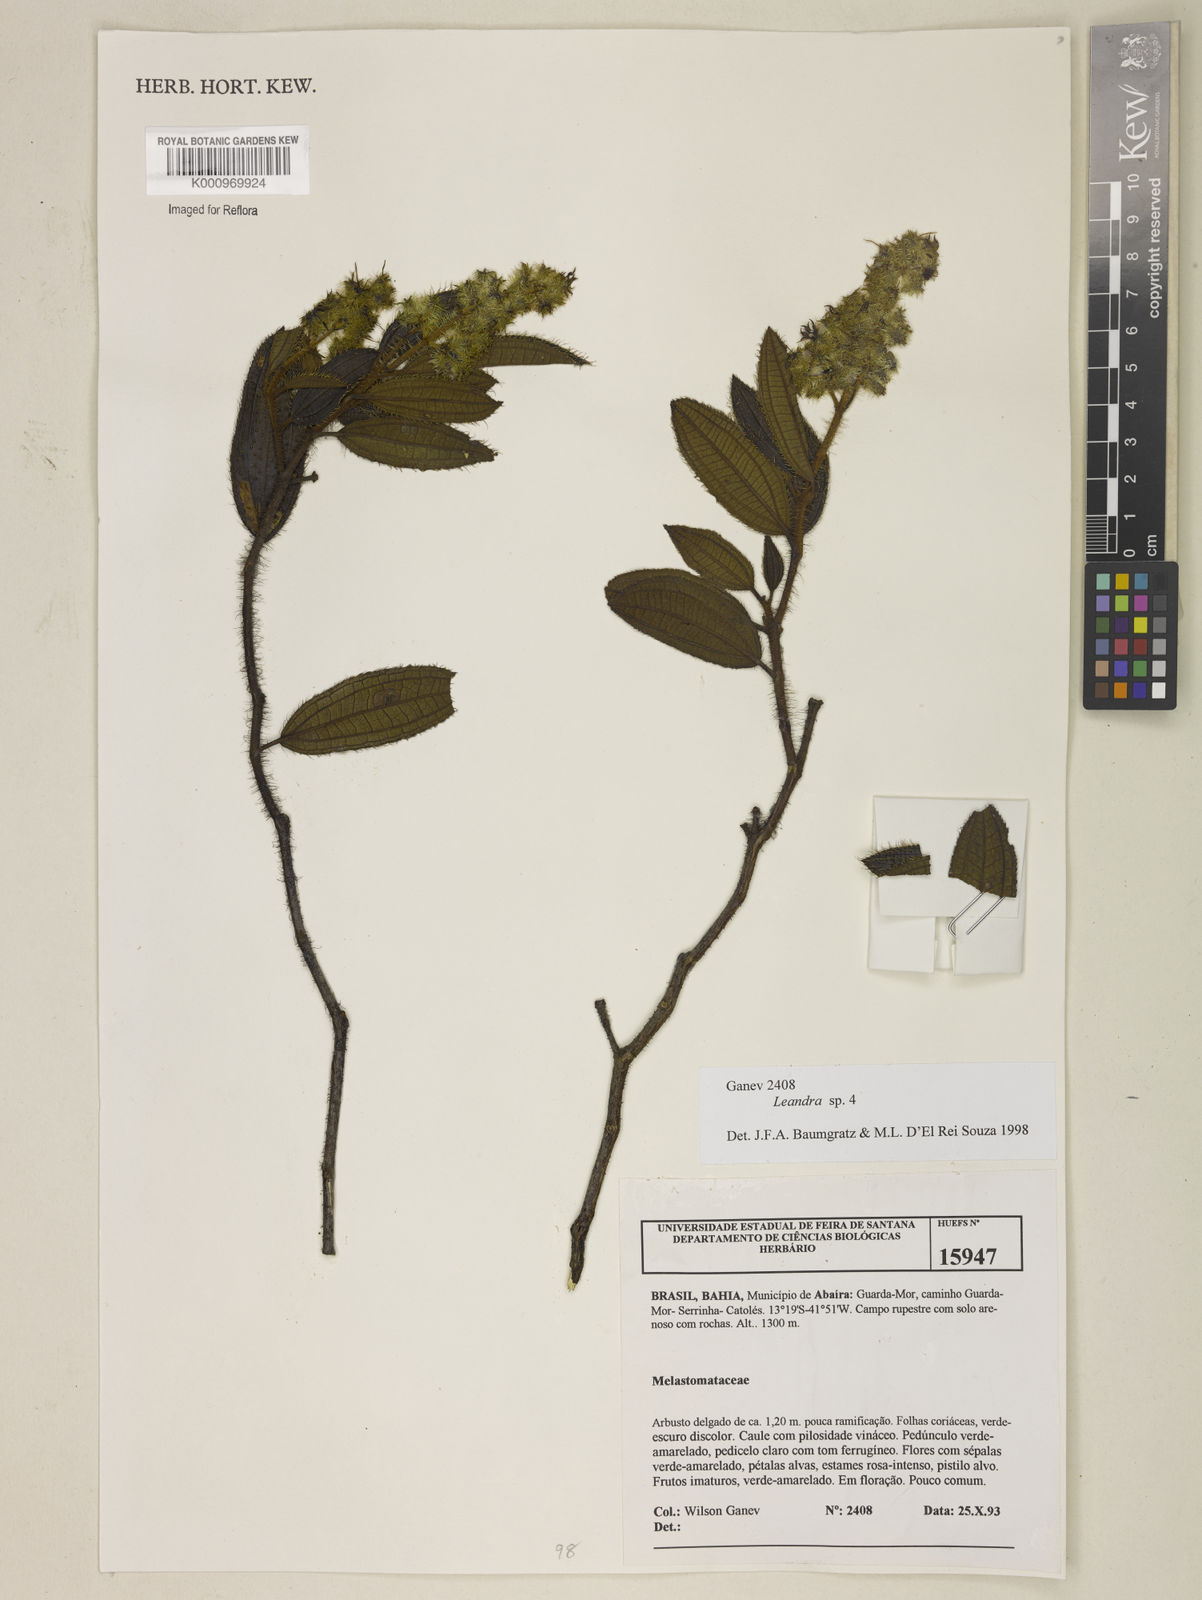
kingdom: Plantae
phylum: Tracheophyta
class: Magnoliopsida
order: Myrtales
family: Melastomataceae
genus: Miconia
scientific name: Miconia
